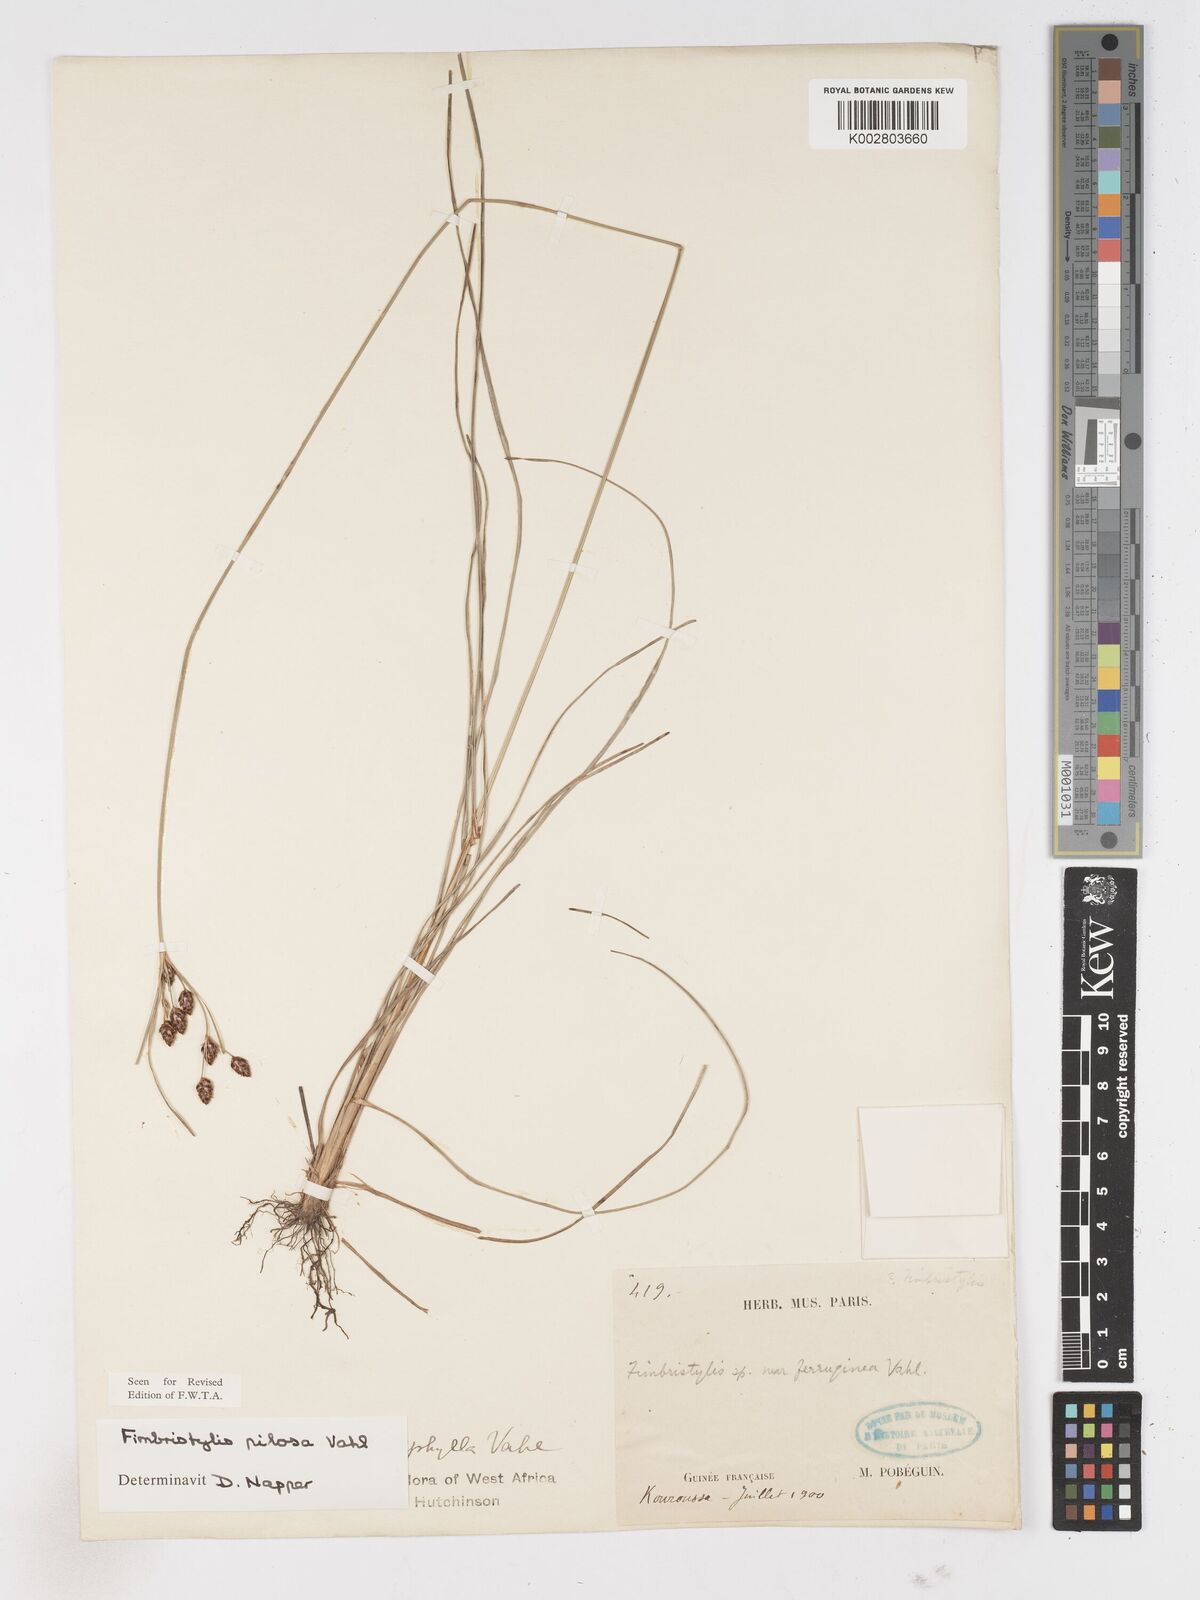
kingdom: Plantae
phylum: Tracheophyta
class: Liliopsida
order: Poales
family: Cyperaceae
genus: Fimbristylis
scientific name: Fimbristylis pilosa
